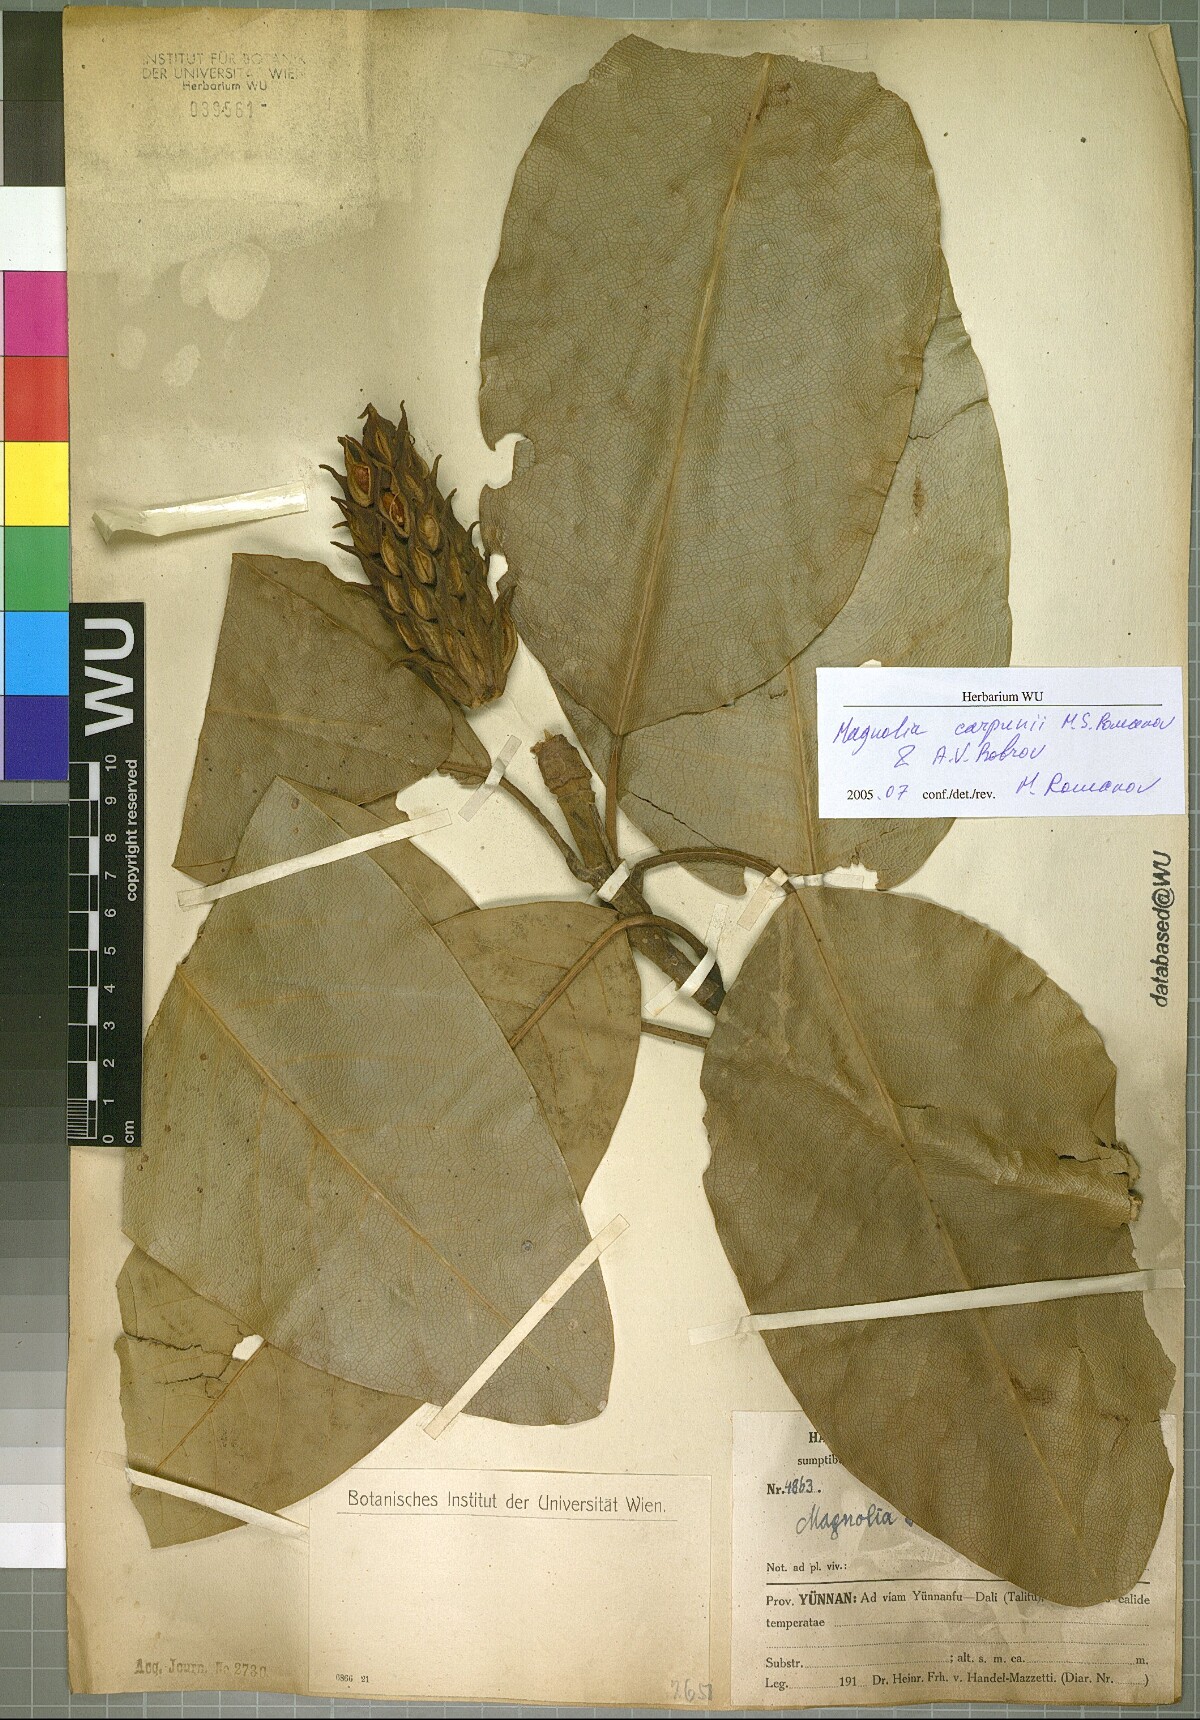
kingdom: Plantae
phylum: Tracheophyta
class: Magnoliopsida
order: Magnoliales
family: Magnoliaceae
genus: Magnolia
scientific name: Magnolia delavayi
